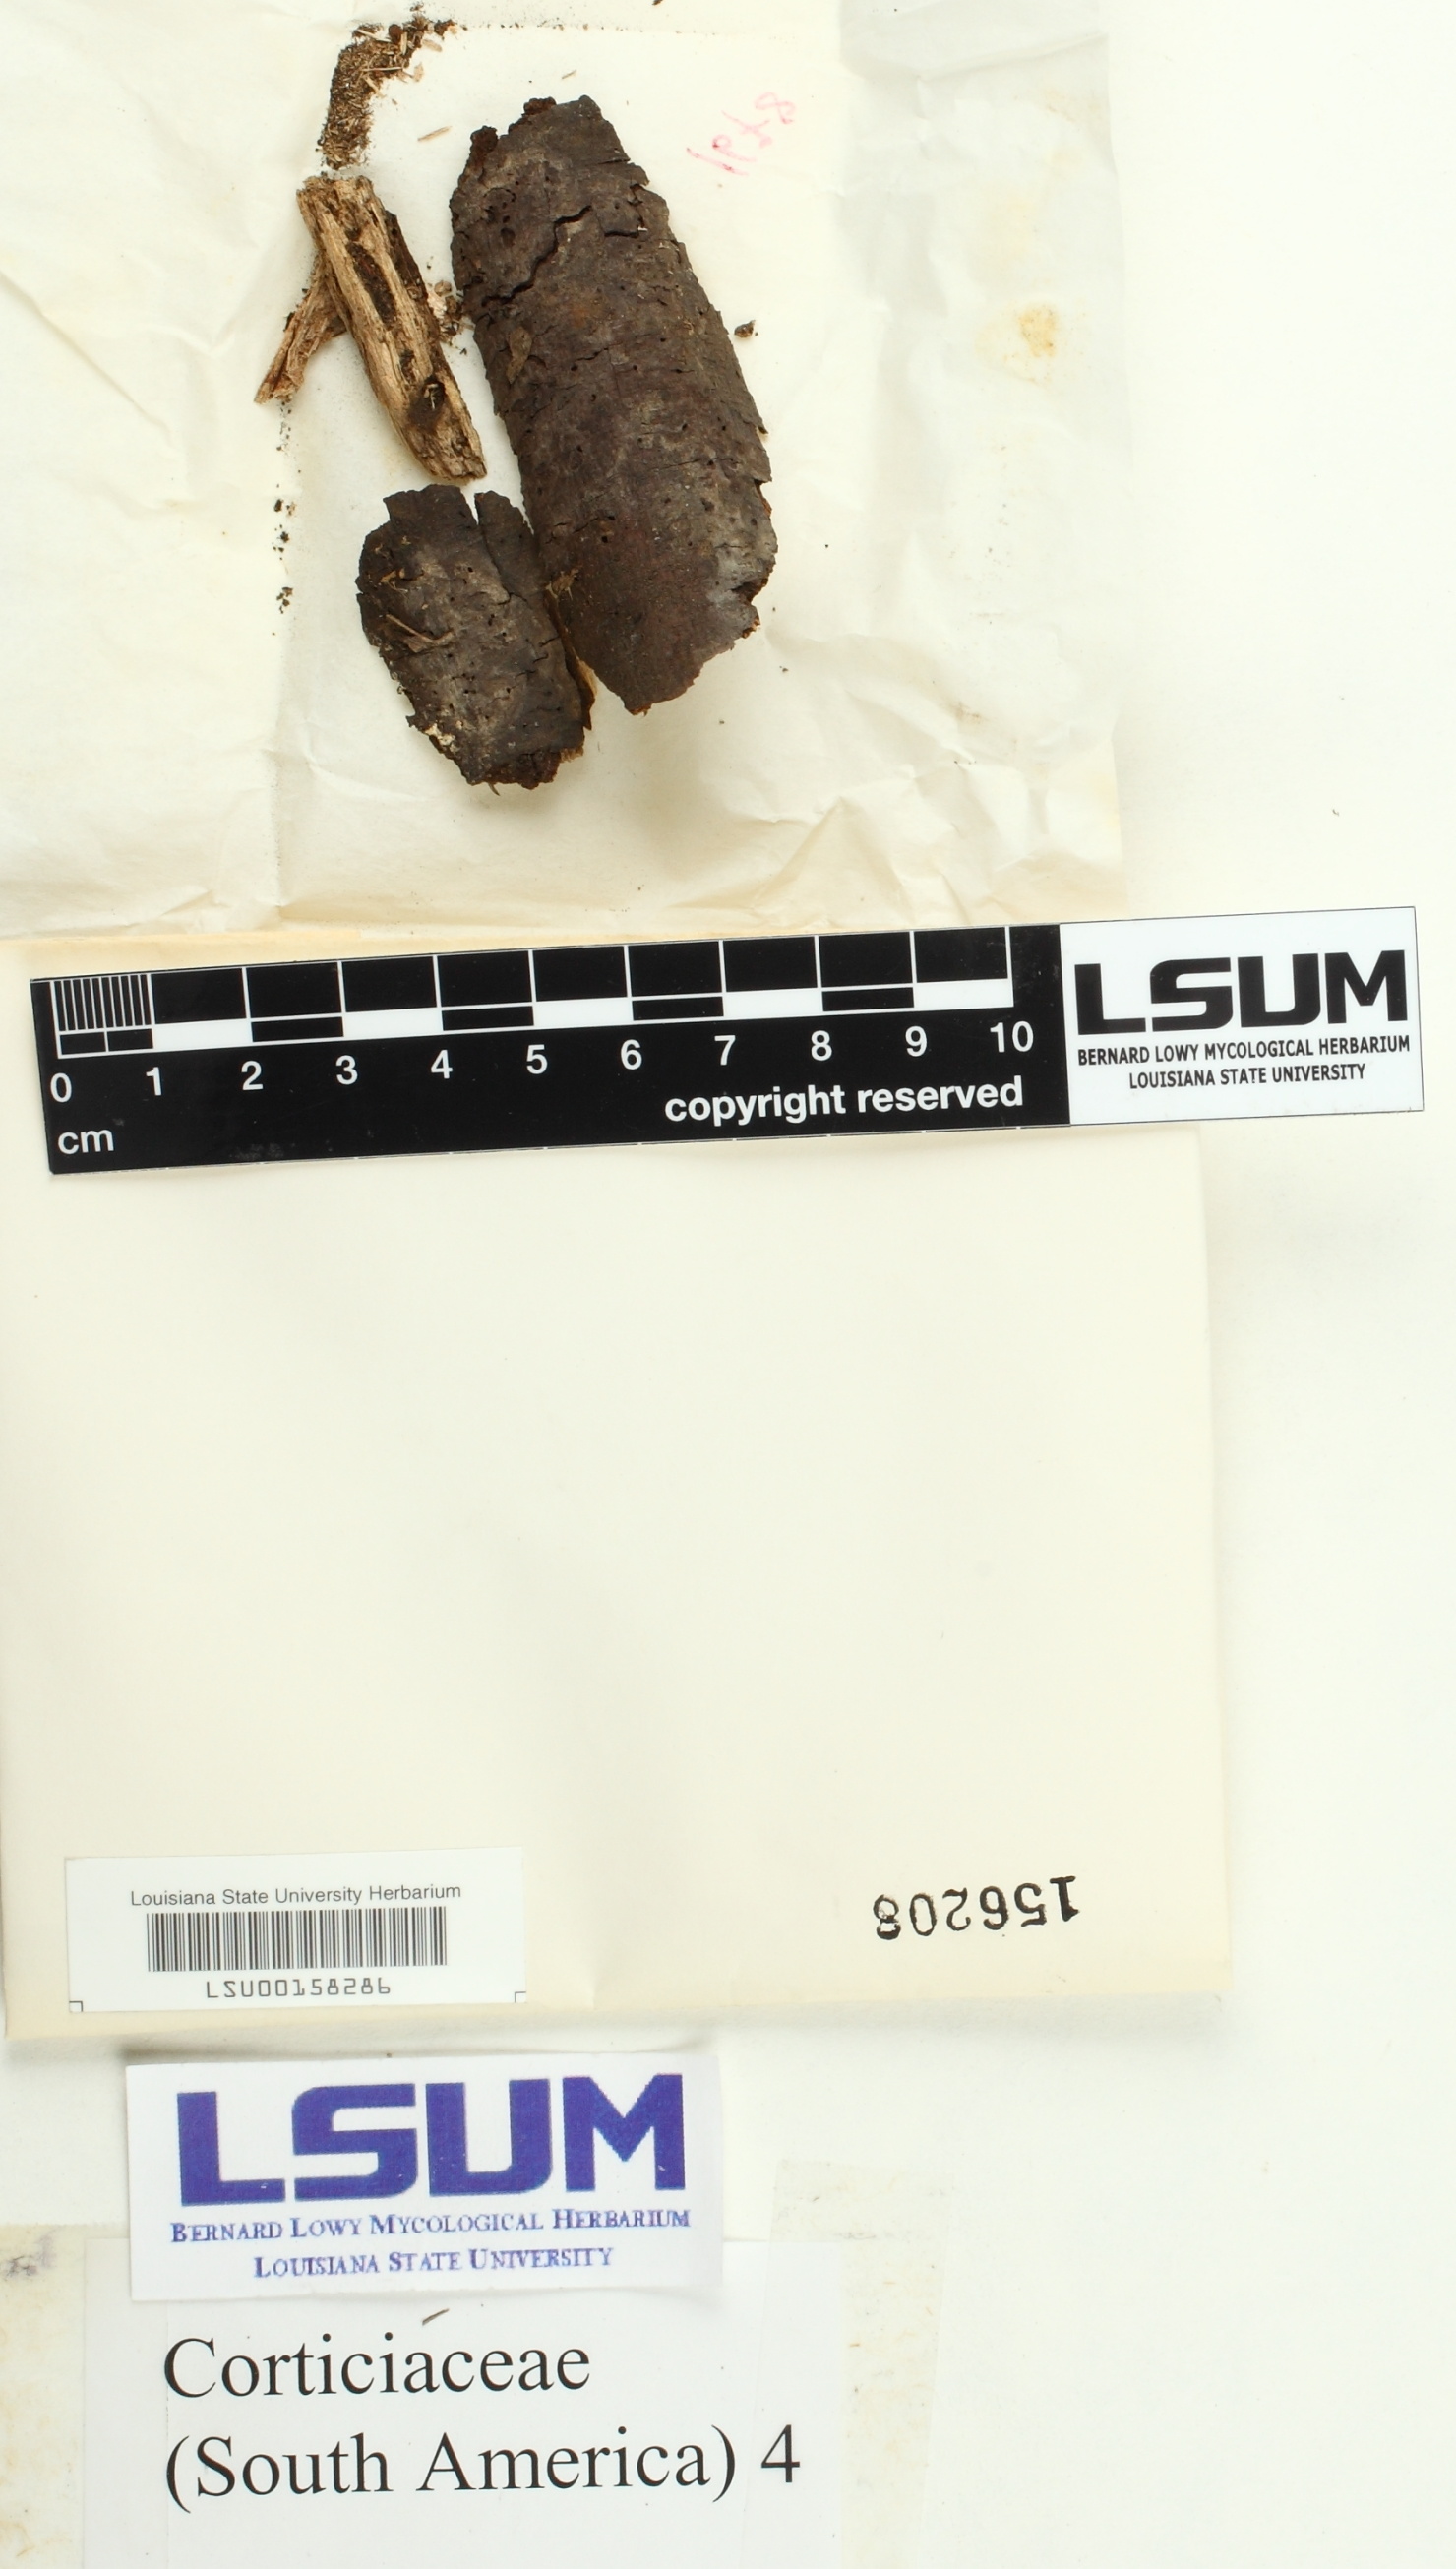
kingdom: Fungi
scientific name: Fungi
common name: Fungi
